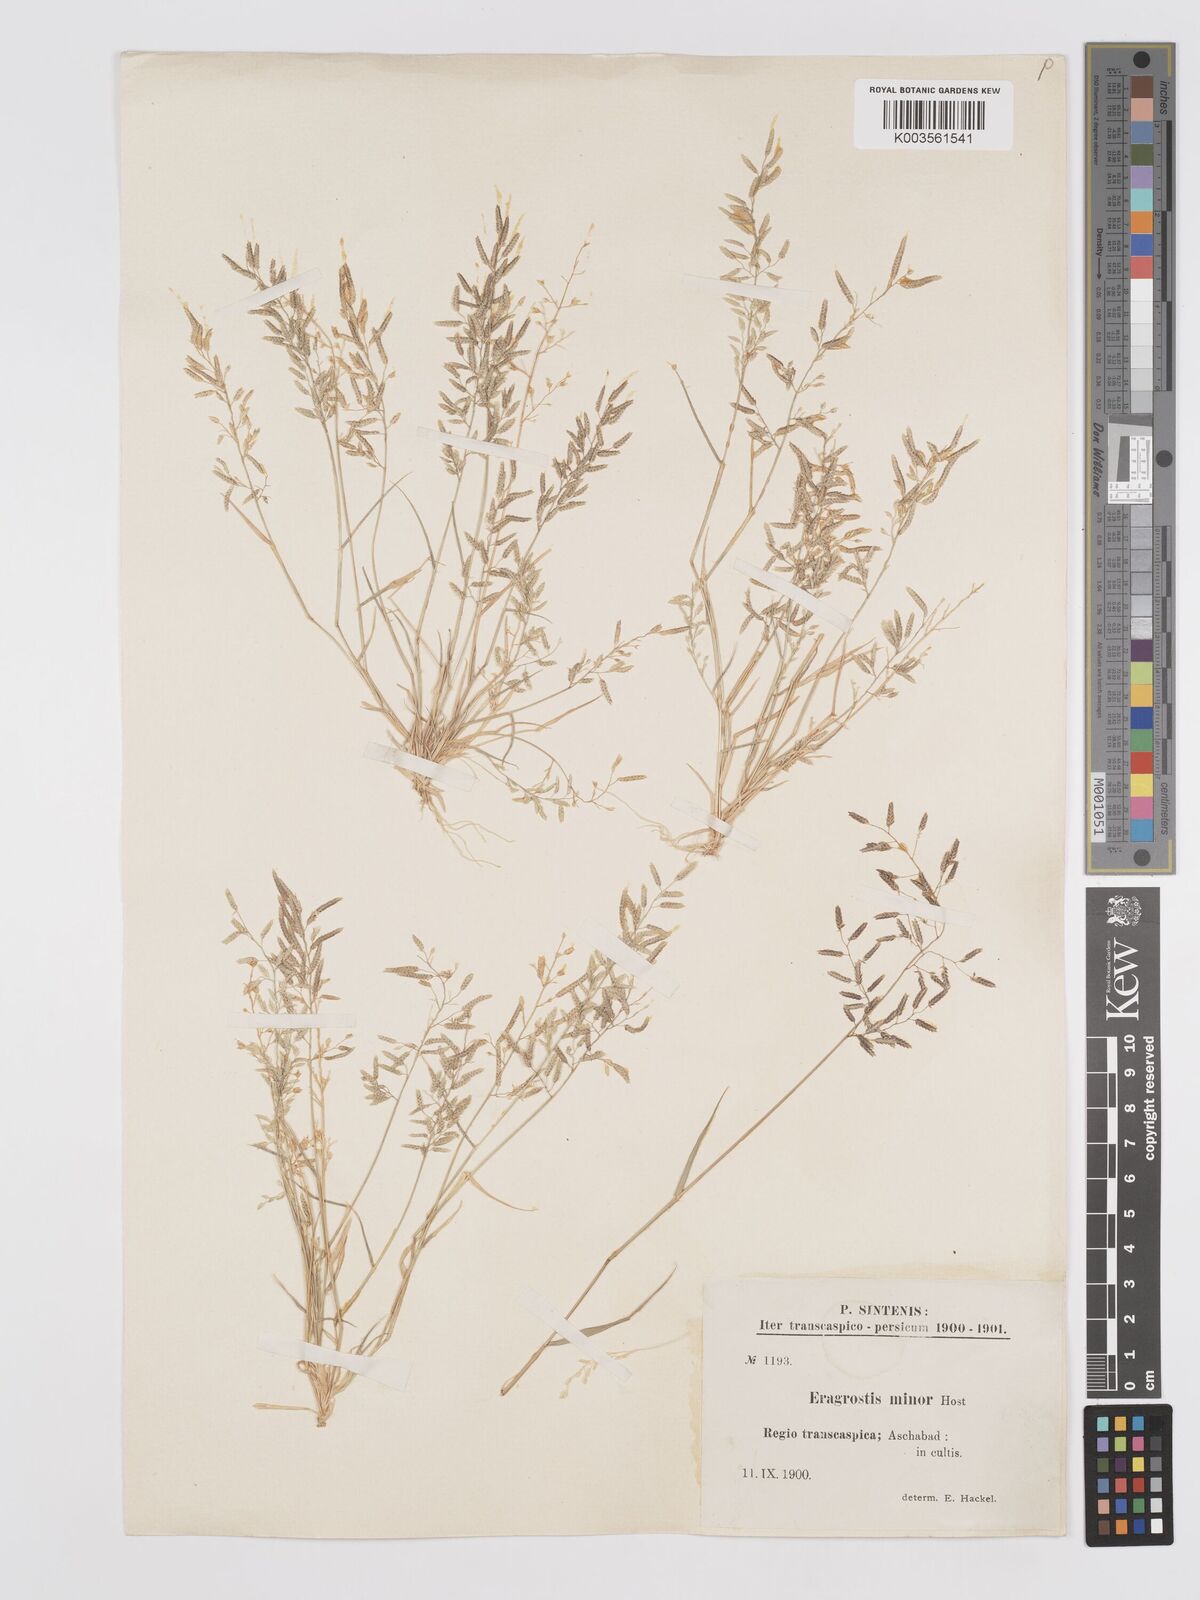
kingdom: Plantae
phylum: Tracheophyta
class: Liliopsida
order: Poales
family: Poaceae
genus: Eragrostis
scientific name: Eragrostis minor
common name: Small love-grass
